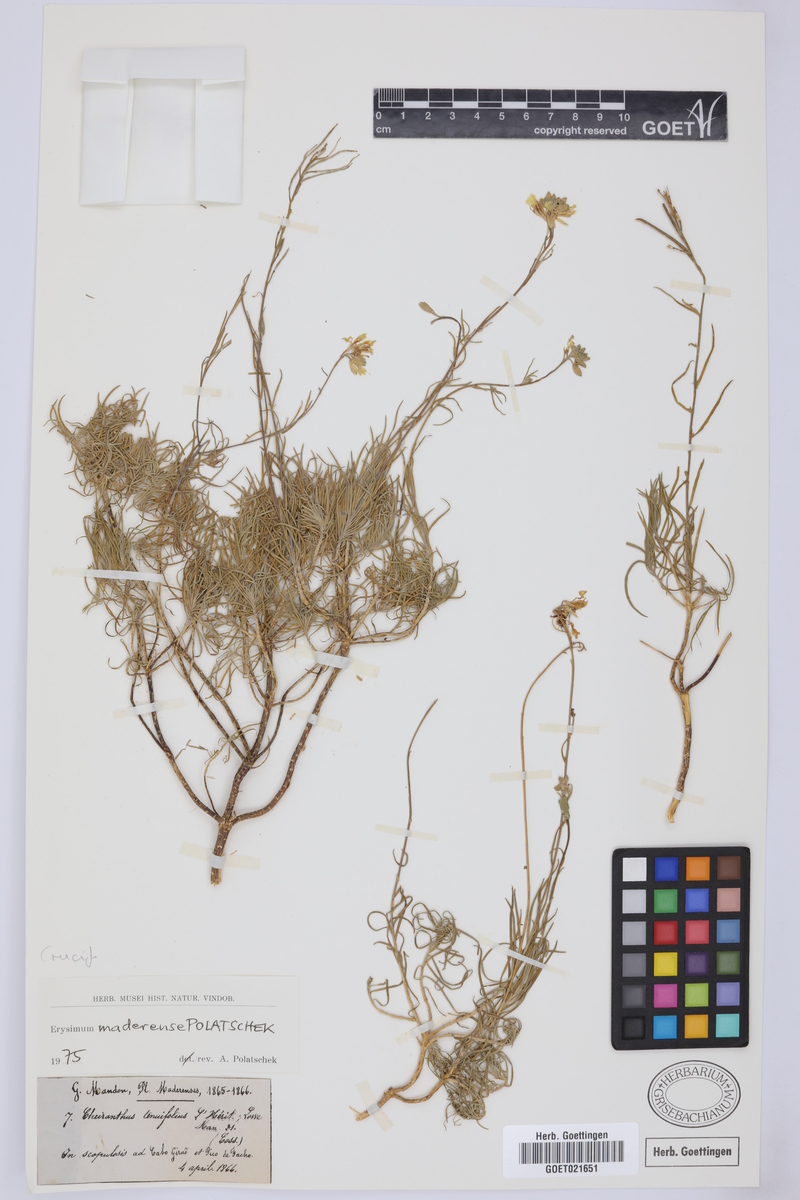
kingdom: Plantae
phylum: Tracheophyta
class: Magnoliopsida
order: Brassicales
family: Brassicaceae
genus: Erysimum
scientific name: Erysimum maderense
